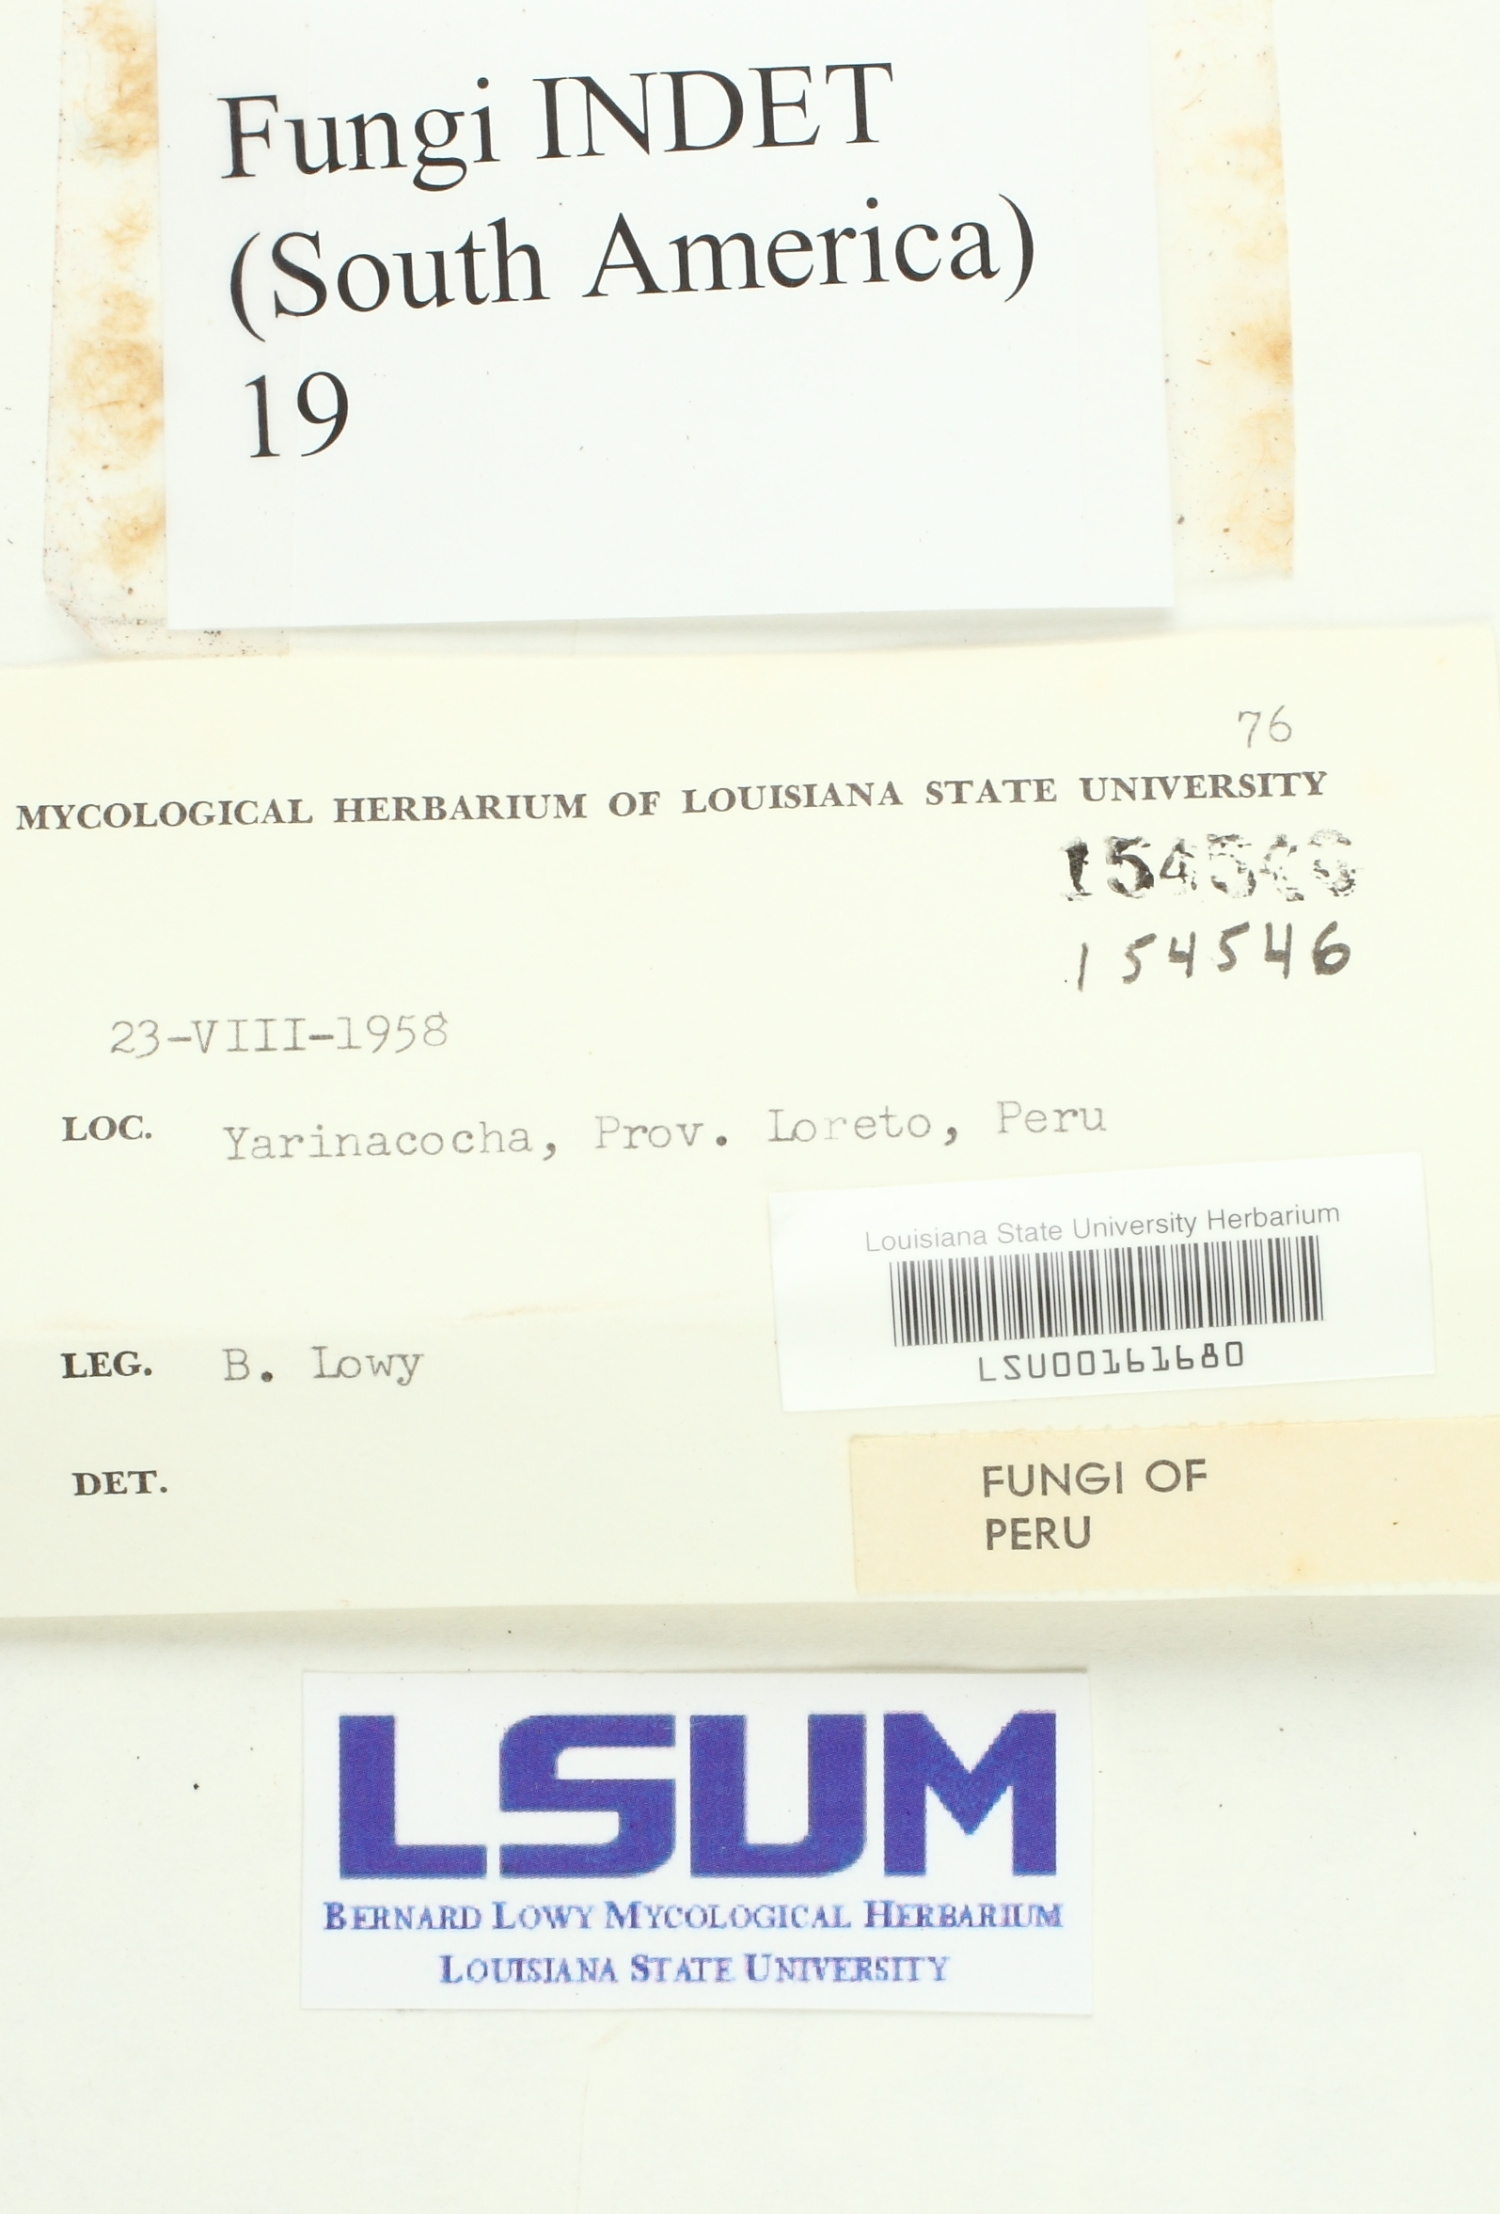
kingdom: Fungi
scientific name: Fungi
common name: Fungi
